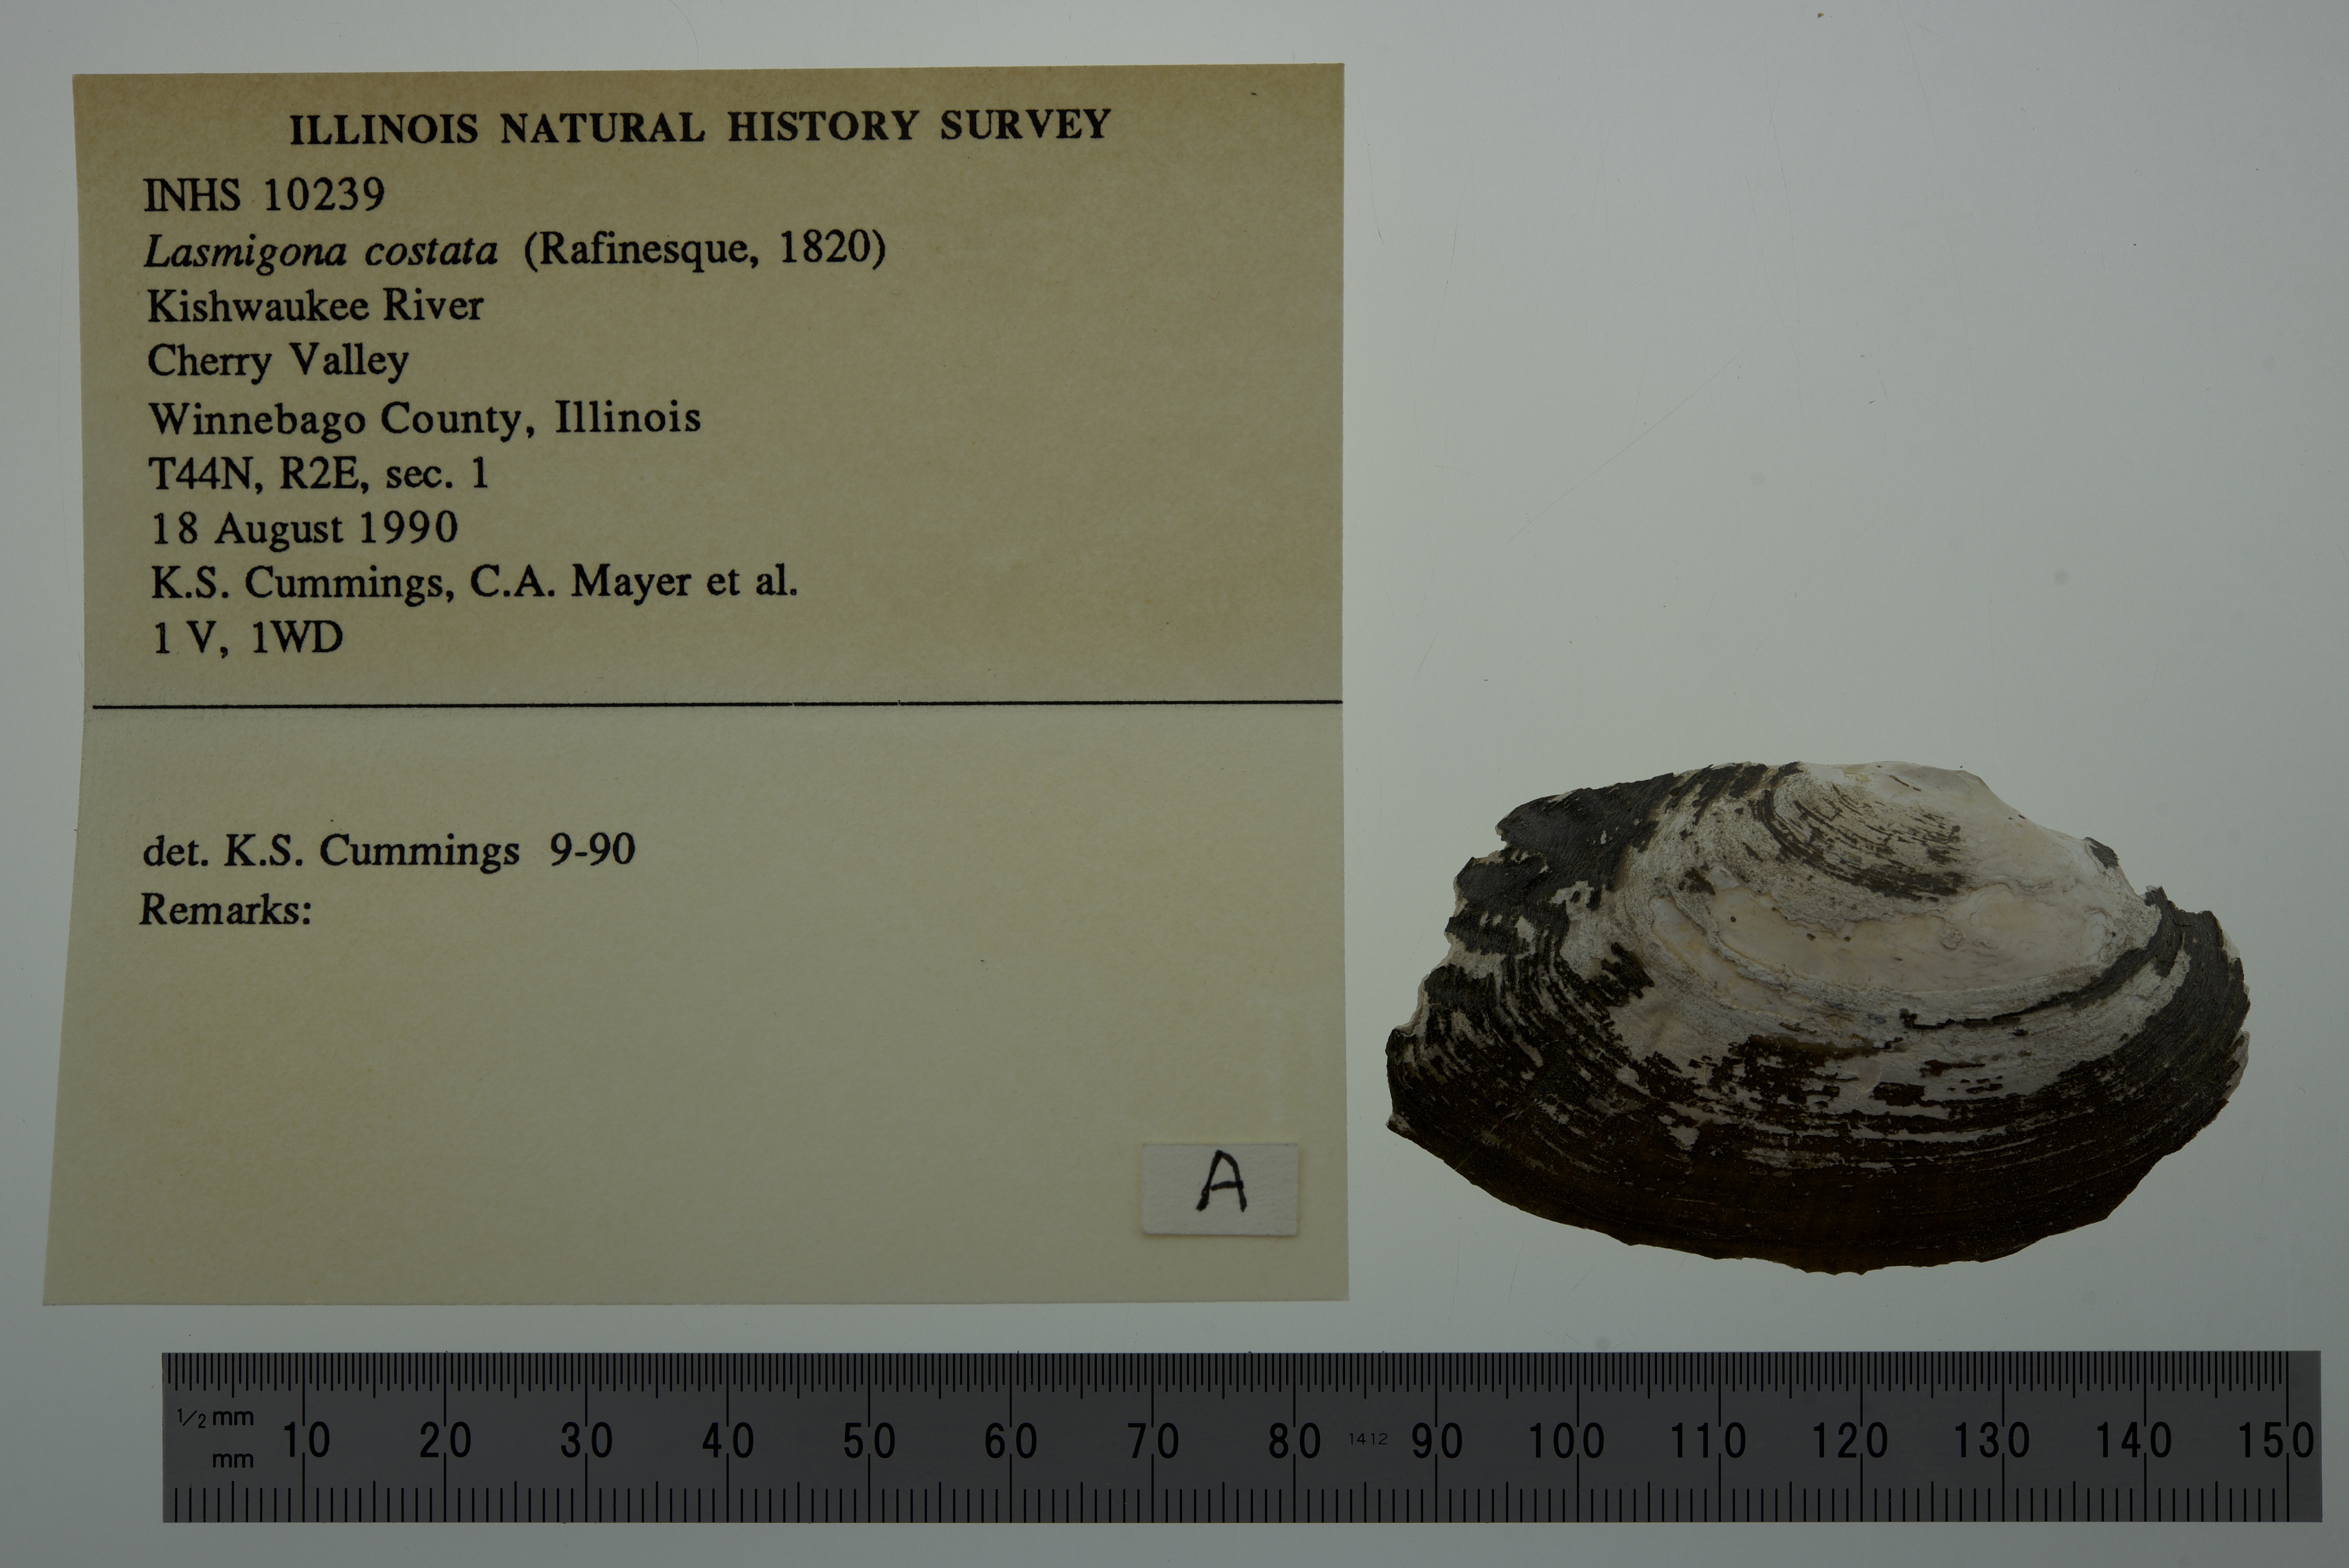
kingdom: Animalia
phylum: Mollusca
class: Bivalvia
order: Unionida
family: Unionidae
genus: Lasmigona
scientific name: Lasmigona costata
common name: Flutedshell
